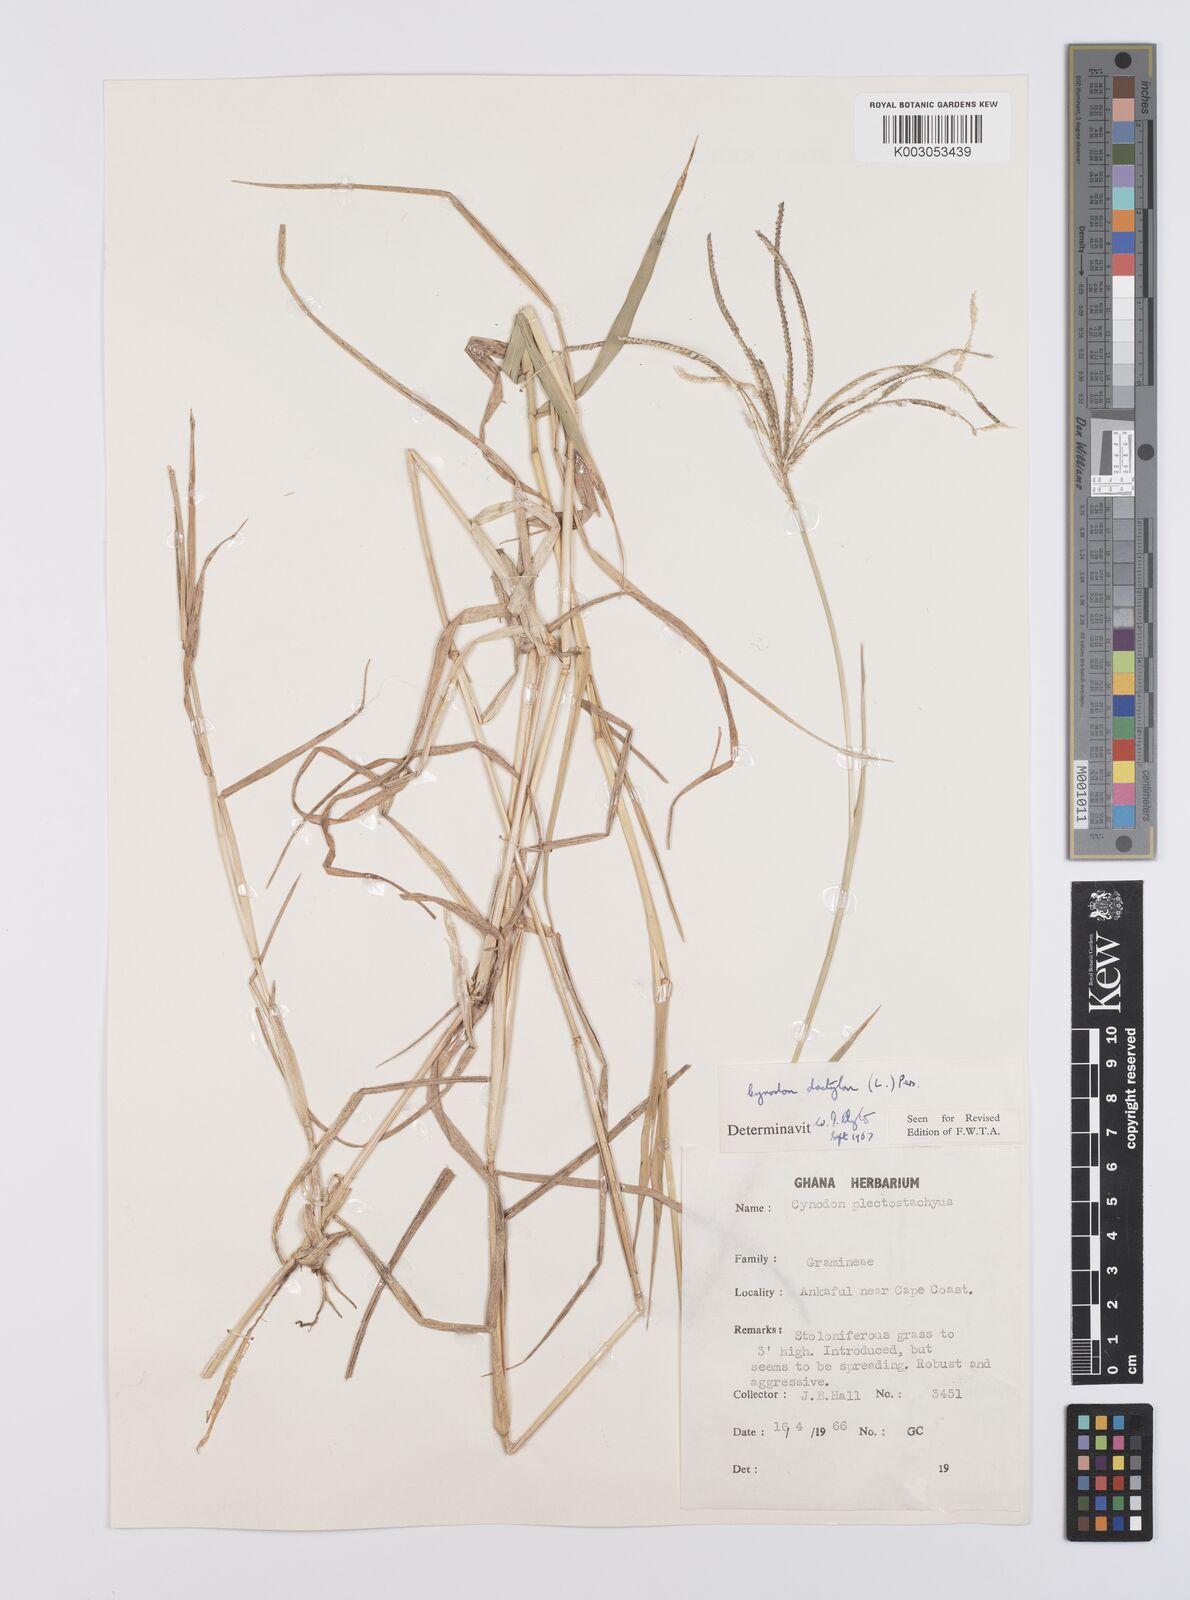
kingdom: Plantae
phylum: Tracheophyta
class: Liliopsida
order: Poales
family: Poaceae
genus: Cynodon
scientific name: Cynodon nlemfuensis
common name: African bermudagrass
